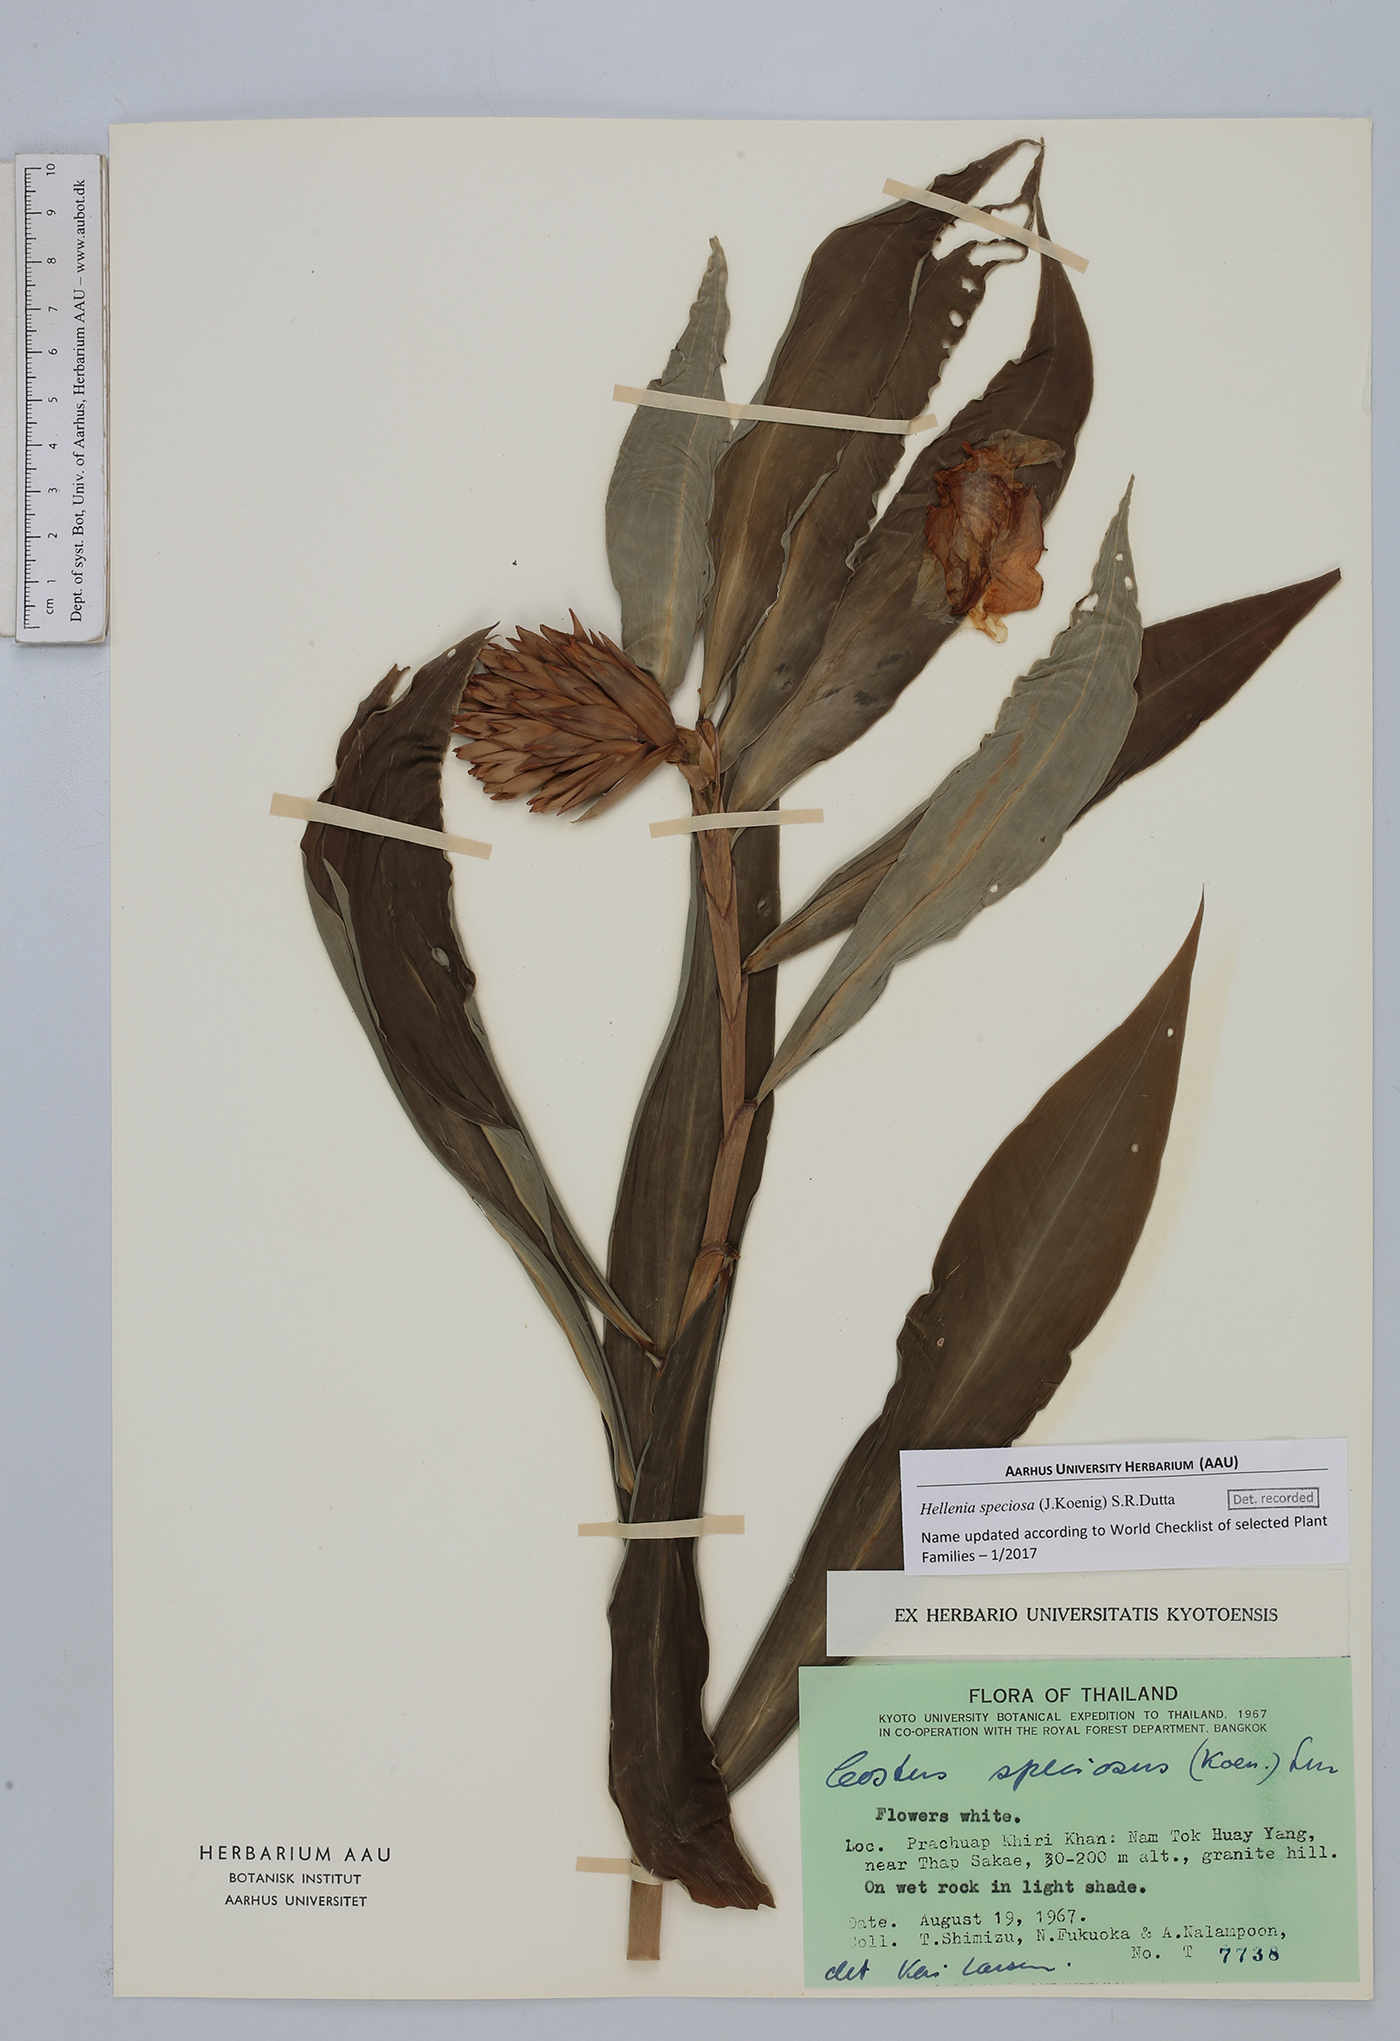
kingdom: Plantae
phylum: Tracheophyta
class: Liliopsida
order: Zingiberales
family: Costaceae
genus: Hellenia
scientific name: Hellenia speciosa
